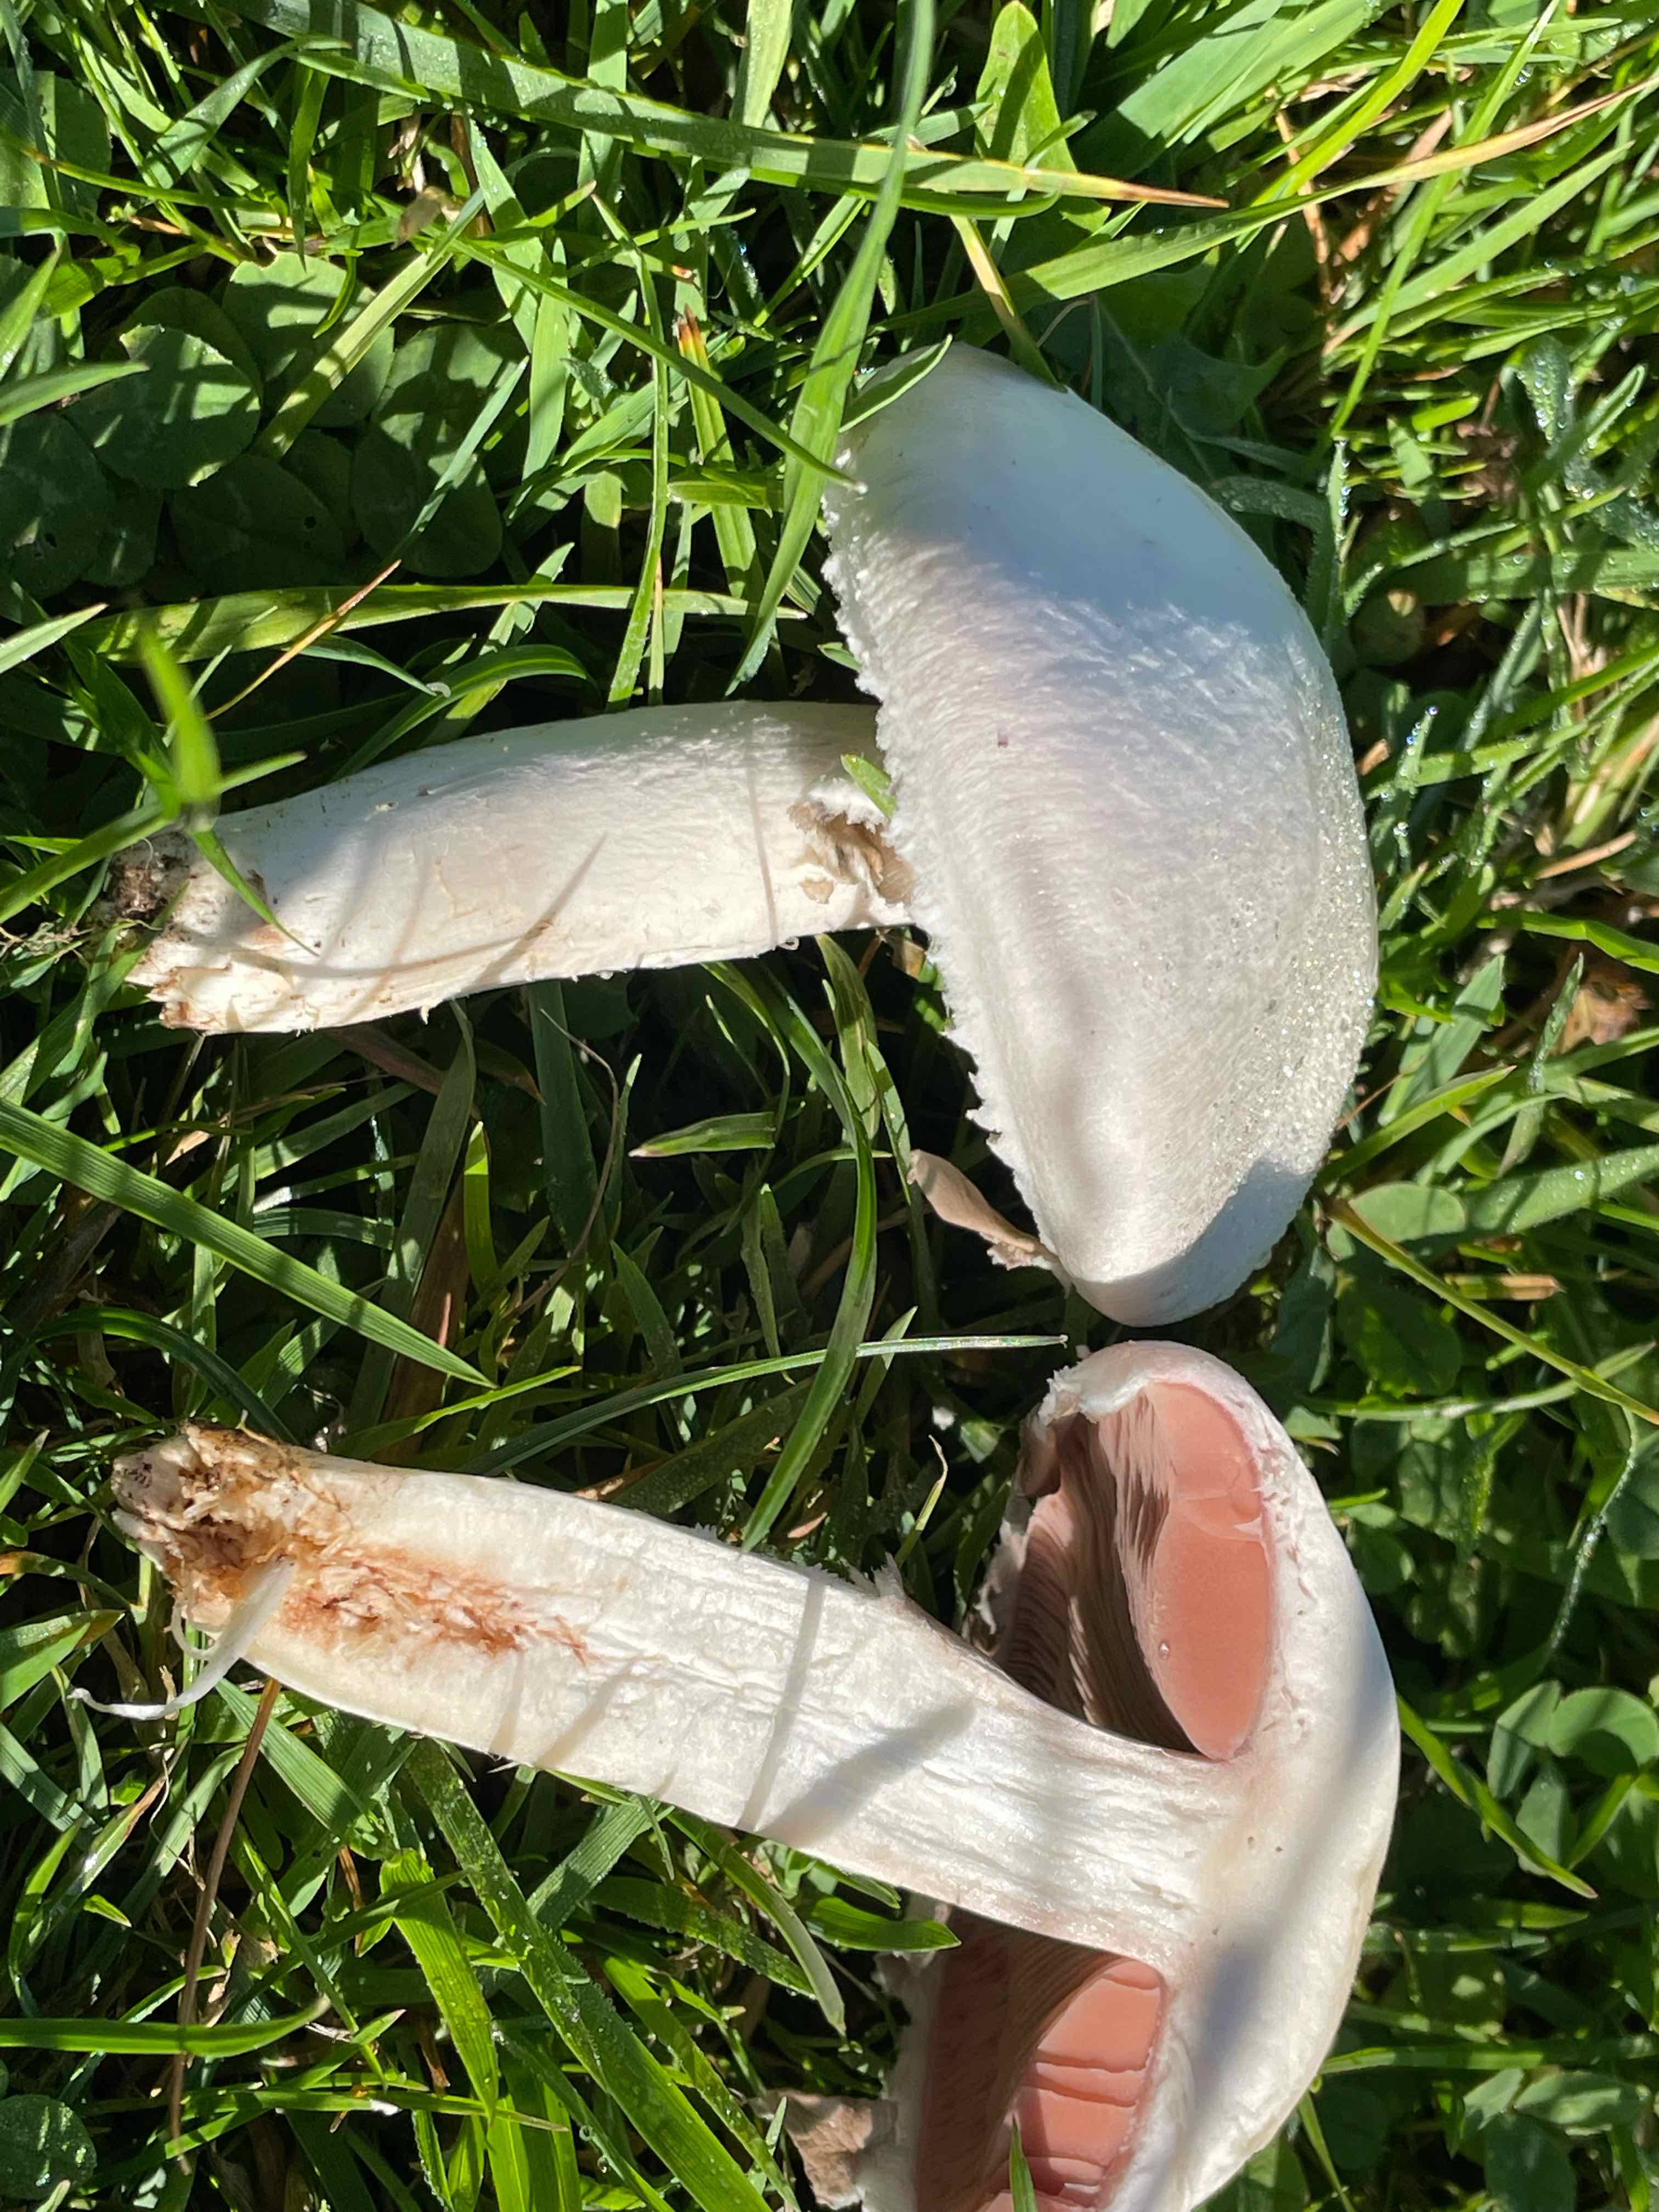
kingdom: Fungi
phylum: Basidiomycota
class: Agaricomycetes
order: Agaricales
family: Agaricaceae
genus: Agaricus
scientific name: Agaricus campestris
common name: mark-champignon
